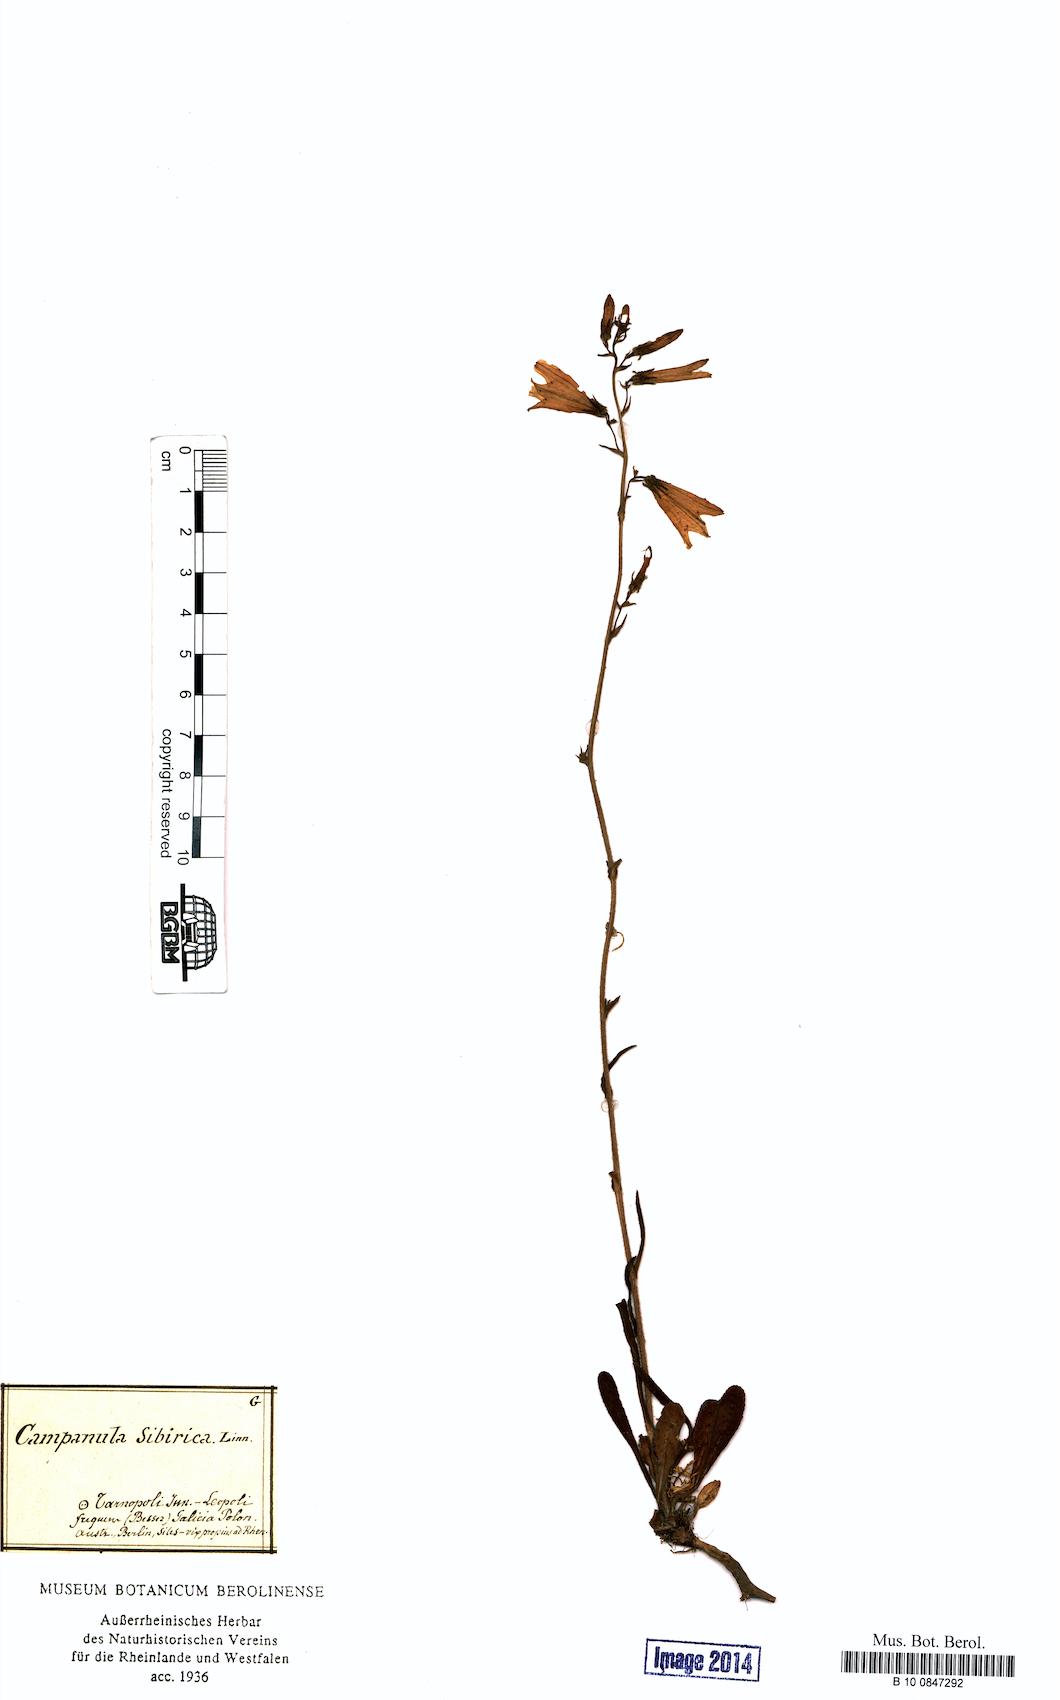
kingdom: Plantae
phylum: Tracheophyta
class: Magnoliopsida
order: Asterales
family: Campanulaceae
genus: Campanula
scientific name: Campanula sibirica
